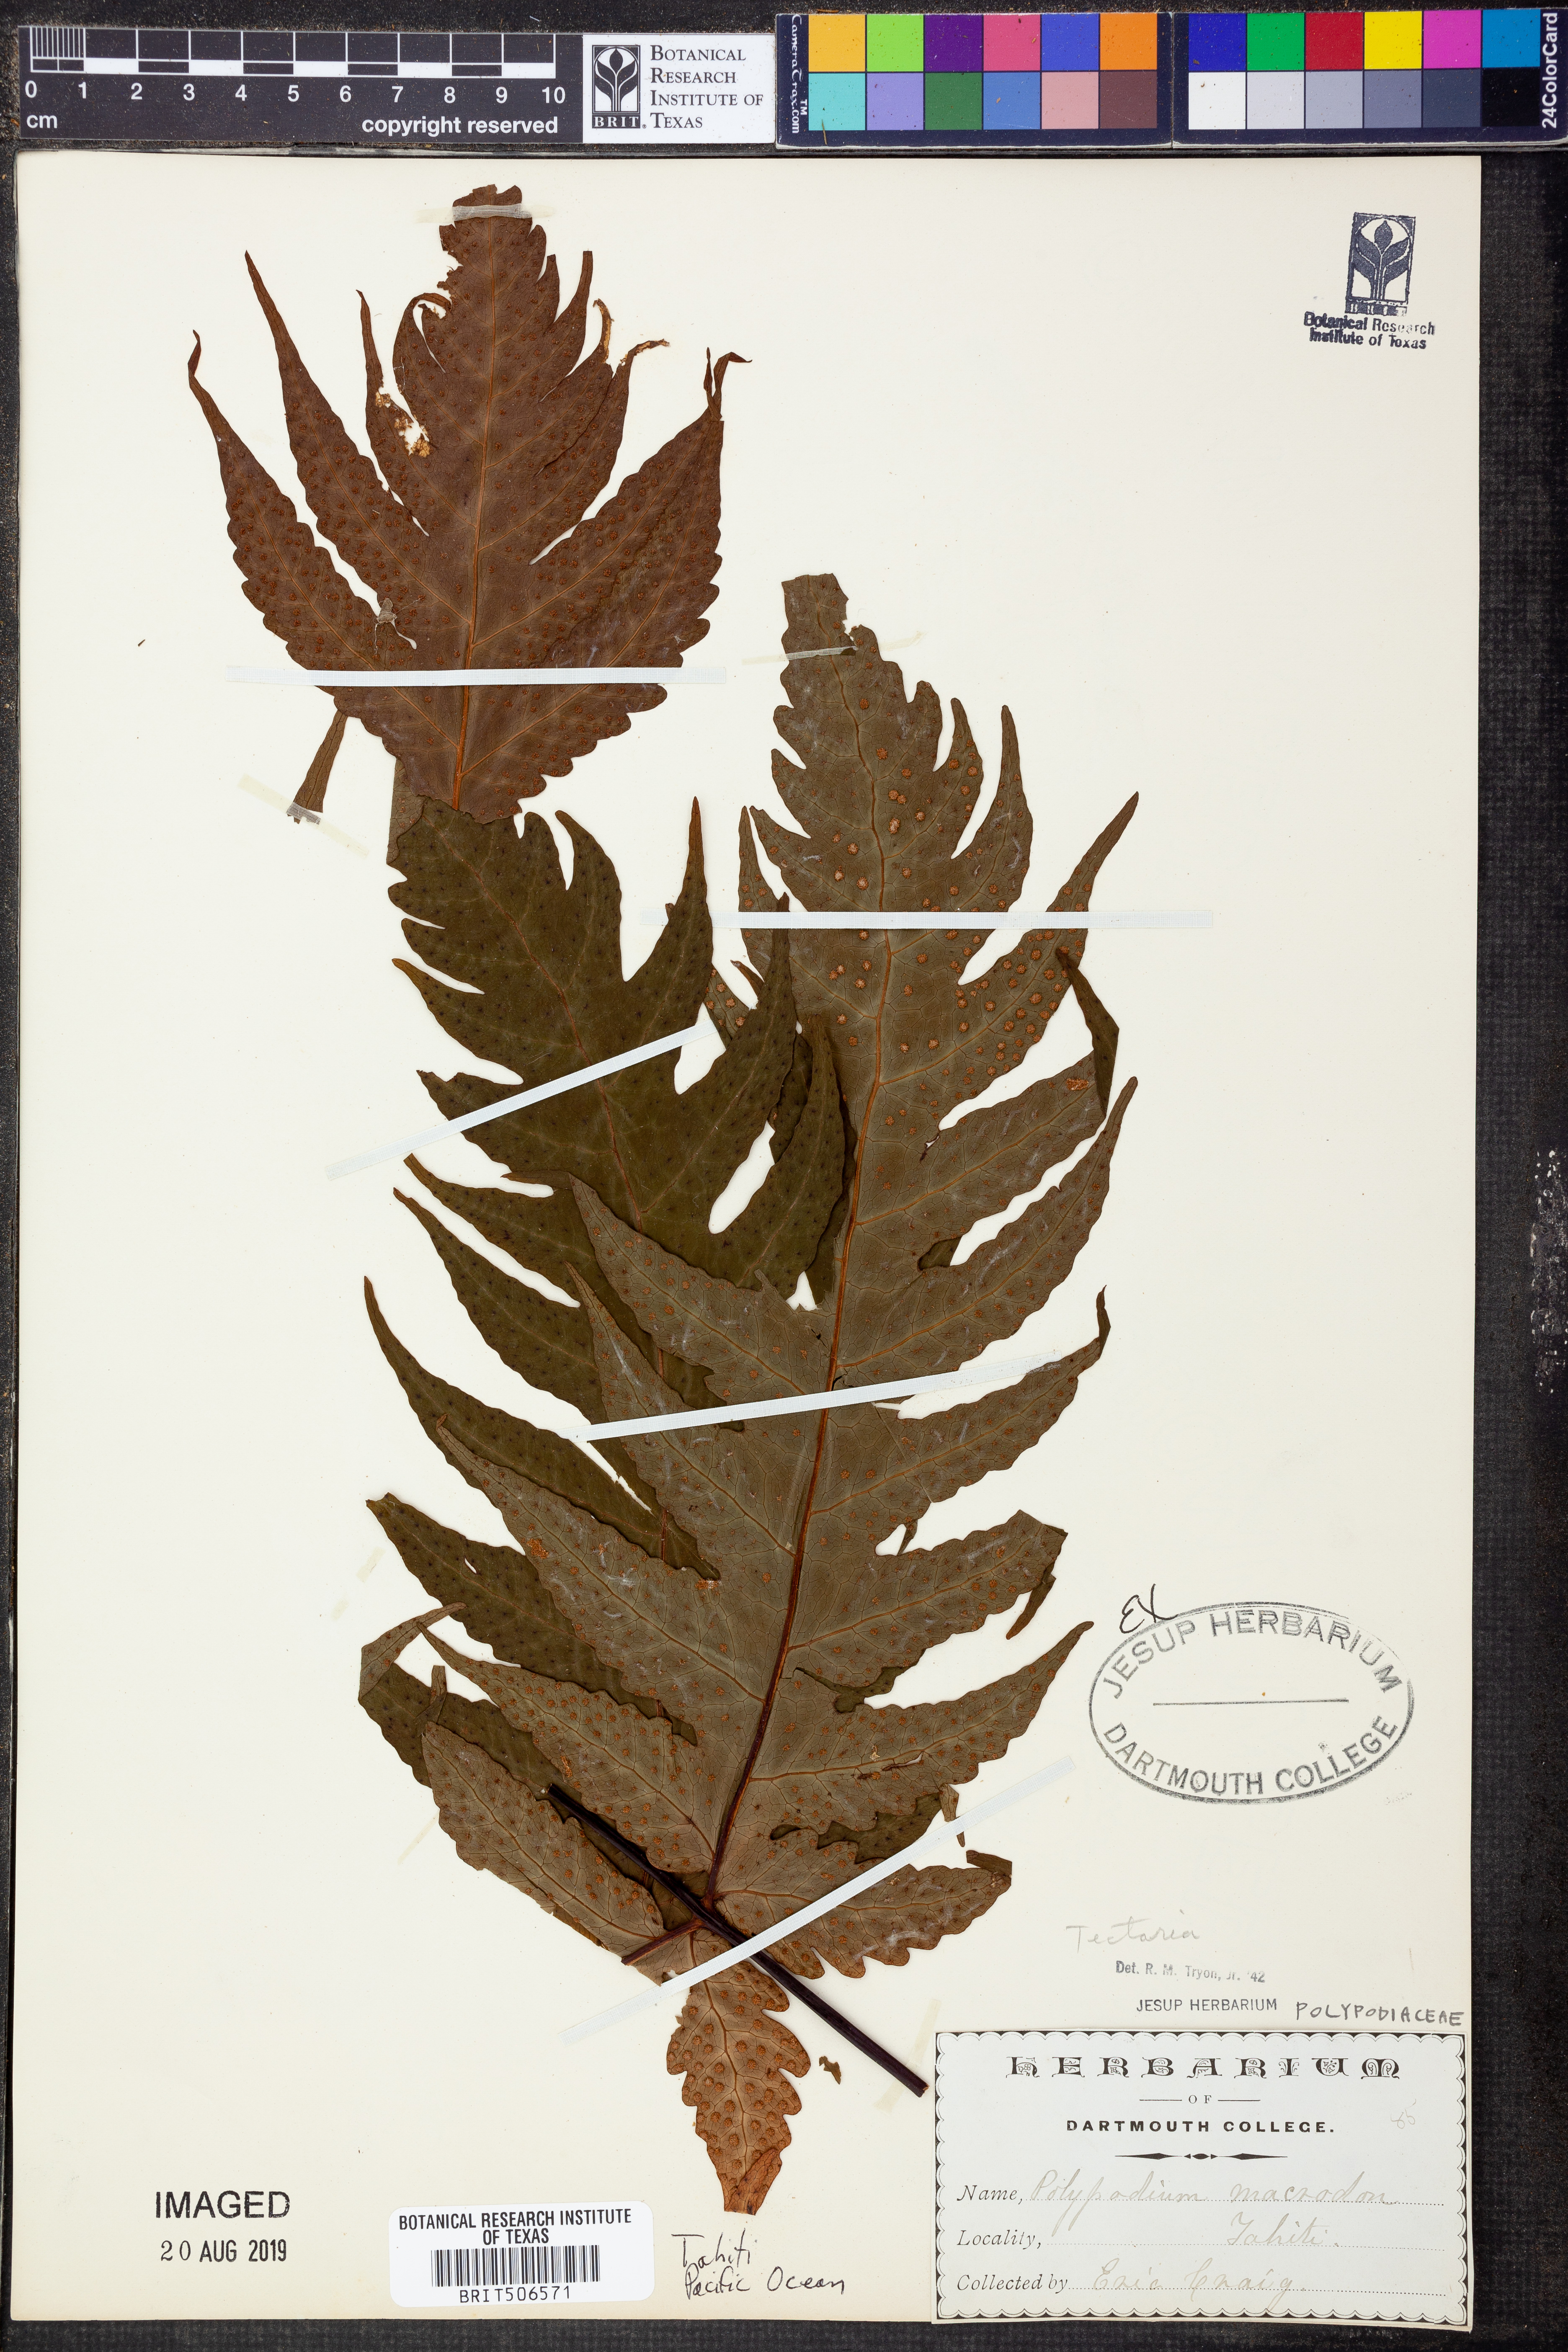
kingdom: Plantae
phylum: Tracheophyta
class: Polypodiopsida
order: Polypodiales
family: Tectariaceae
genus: Tectaria
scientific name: Tectaria
